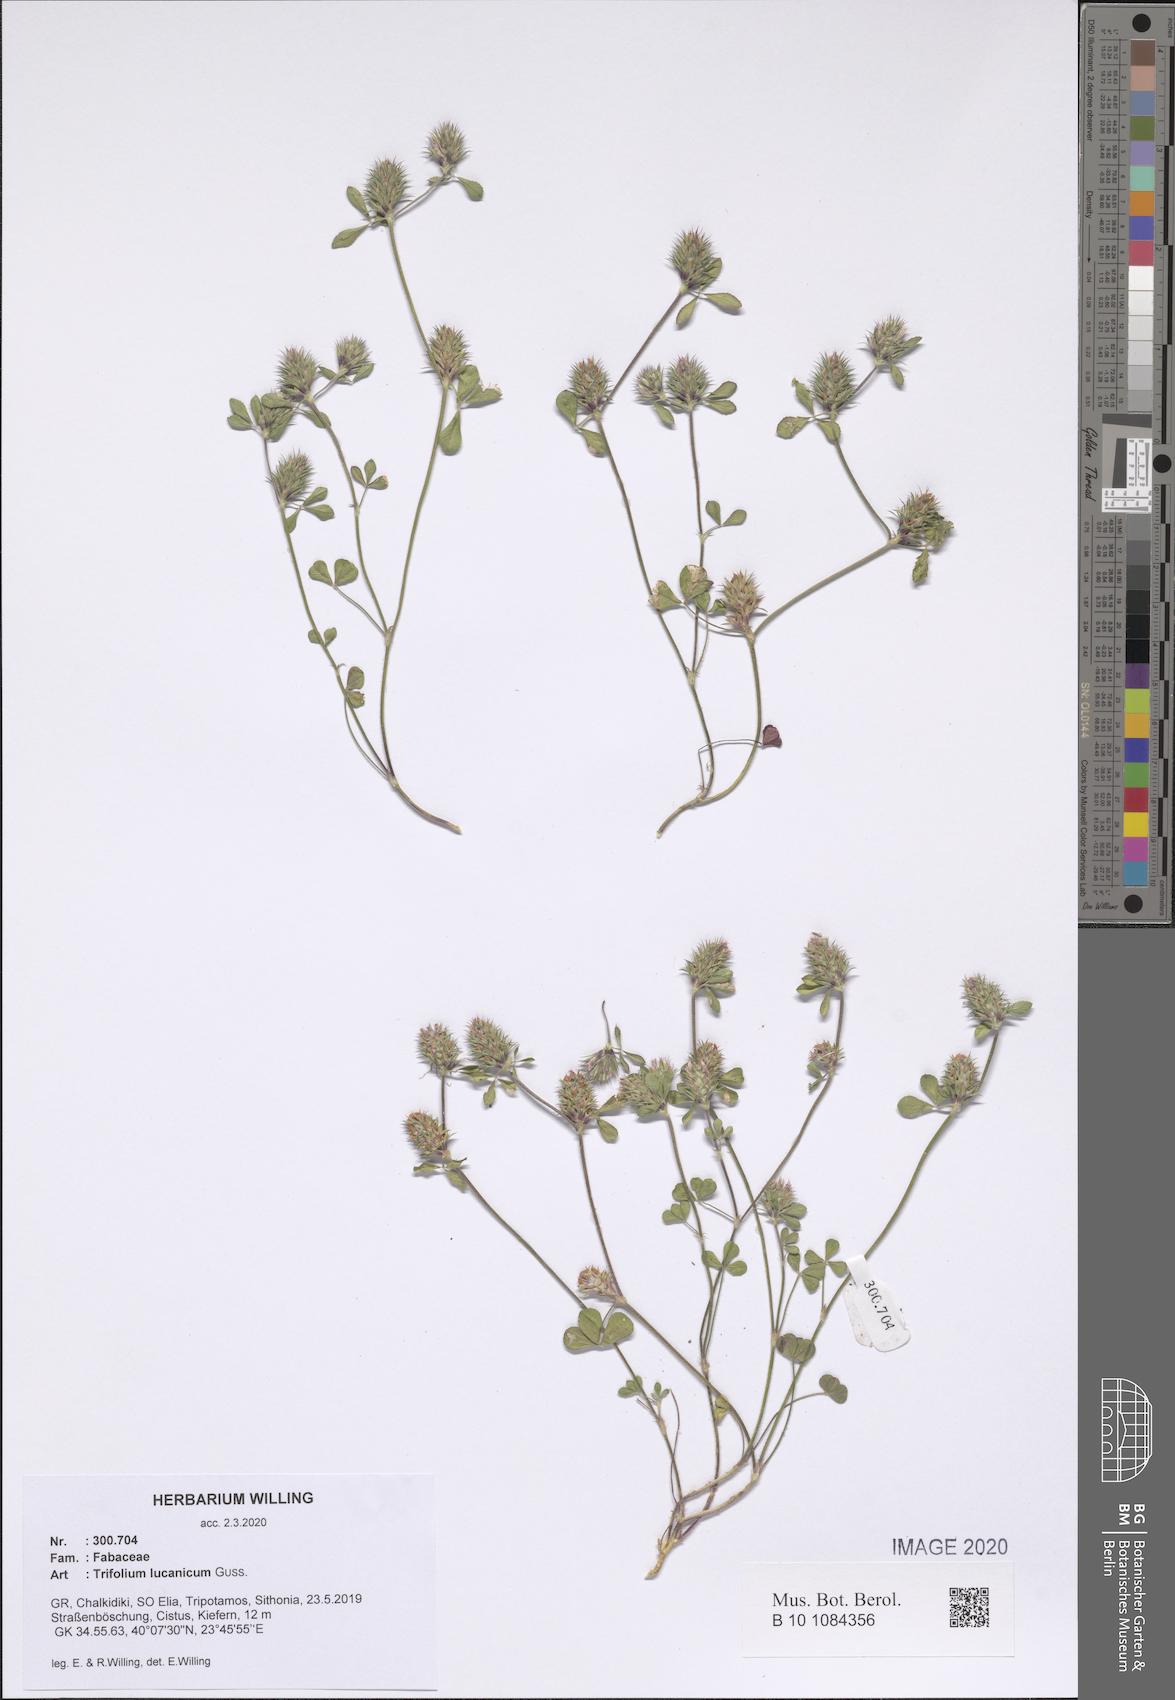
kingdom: Plantae
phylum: Tracheophyta
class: Magnoliopsida
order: Fabales
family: Fabaceae
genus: Trifolium
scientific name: Trifolium lucanicum
